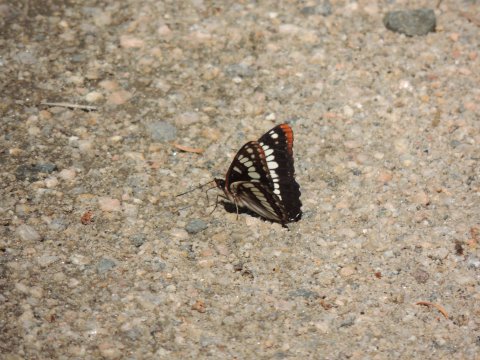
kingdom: Animalia
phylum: Arthropoda
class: Insecta
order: Lepidoptera
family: Nymphalidae
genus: Limenitis
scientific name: Limenitis lorquini
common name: Lorquin's Admiral
